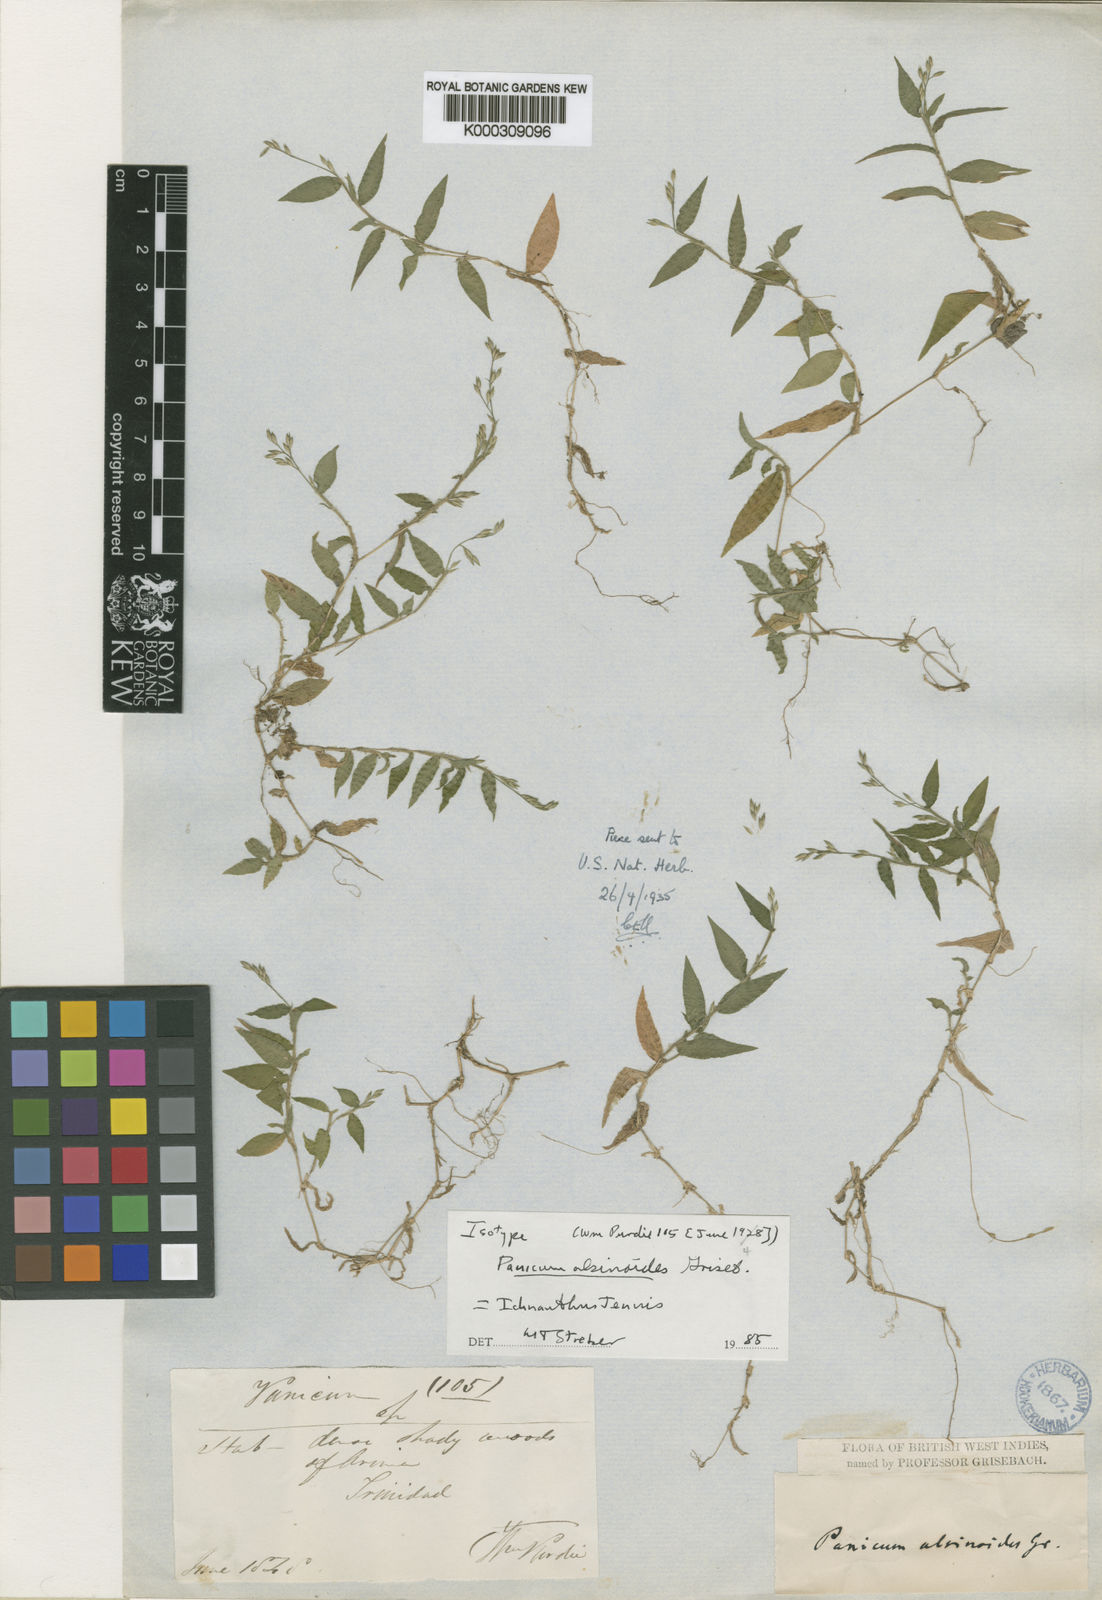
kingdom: Plantae
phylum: Tracheophyta
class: Liliopsida
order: Poales
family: Poaceae
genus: Ichnanthus
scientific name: Ichnanthus tenuis
